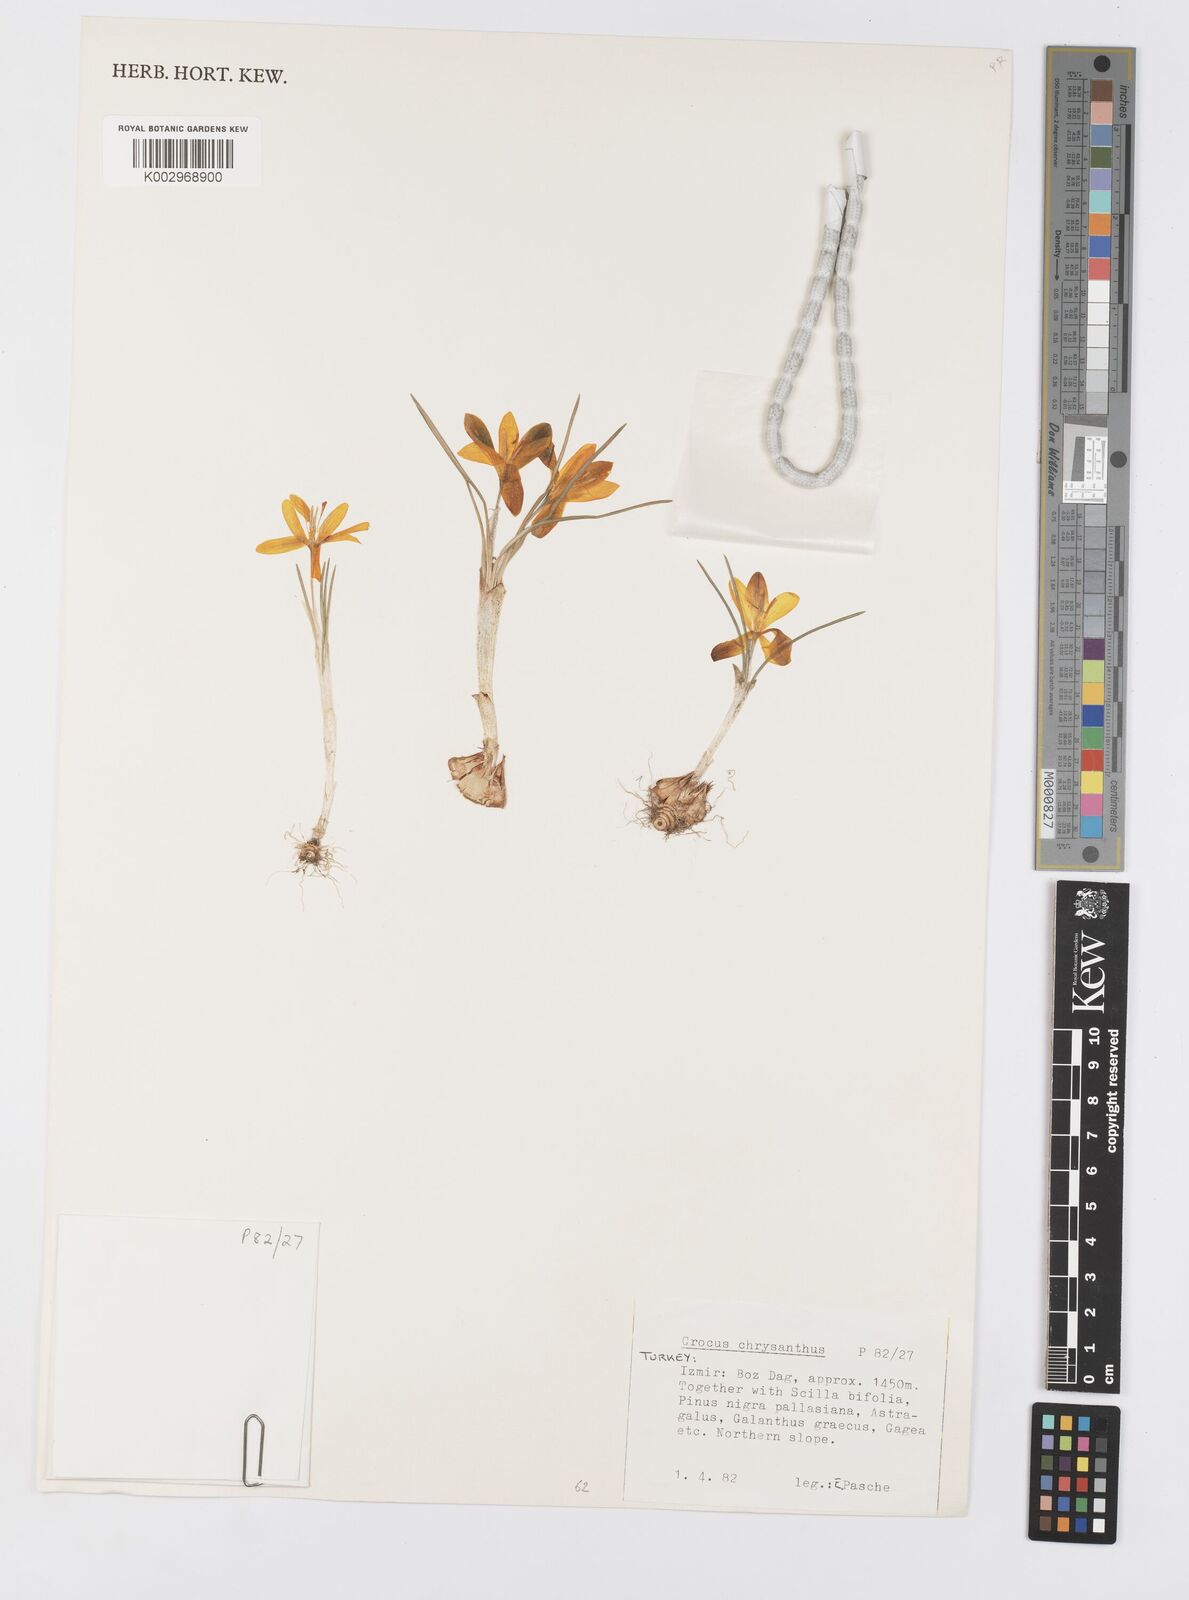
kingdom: Plantae
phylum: Tracheophyta
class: Liliopsida
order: Asparagales
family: Iridaceae
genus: Crocus
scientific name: Crocus chrysanthus
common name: Golden crocus
